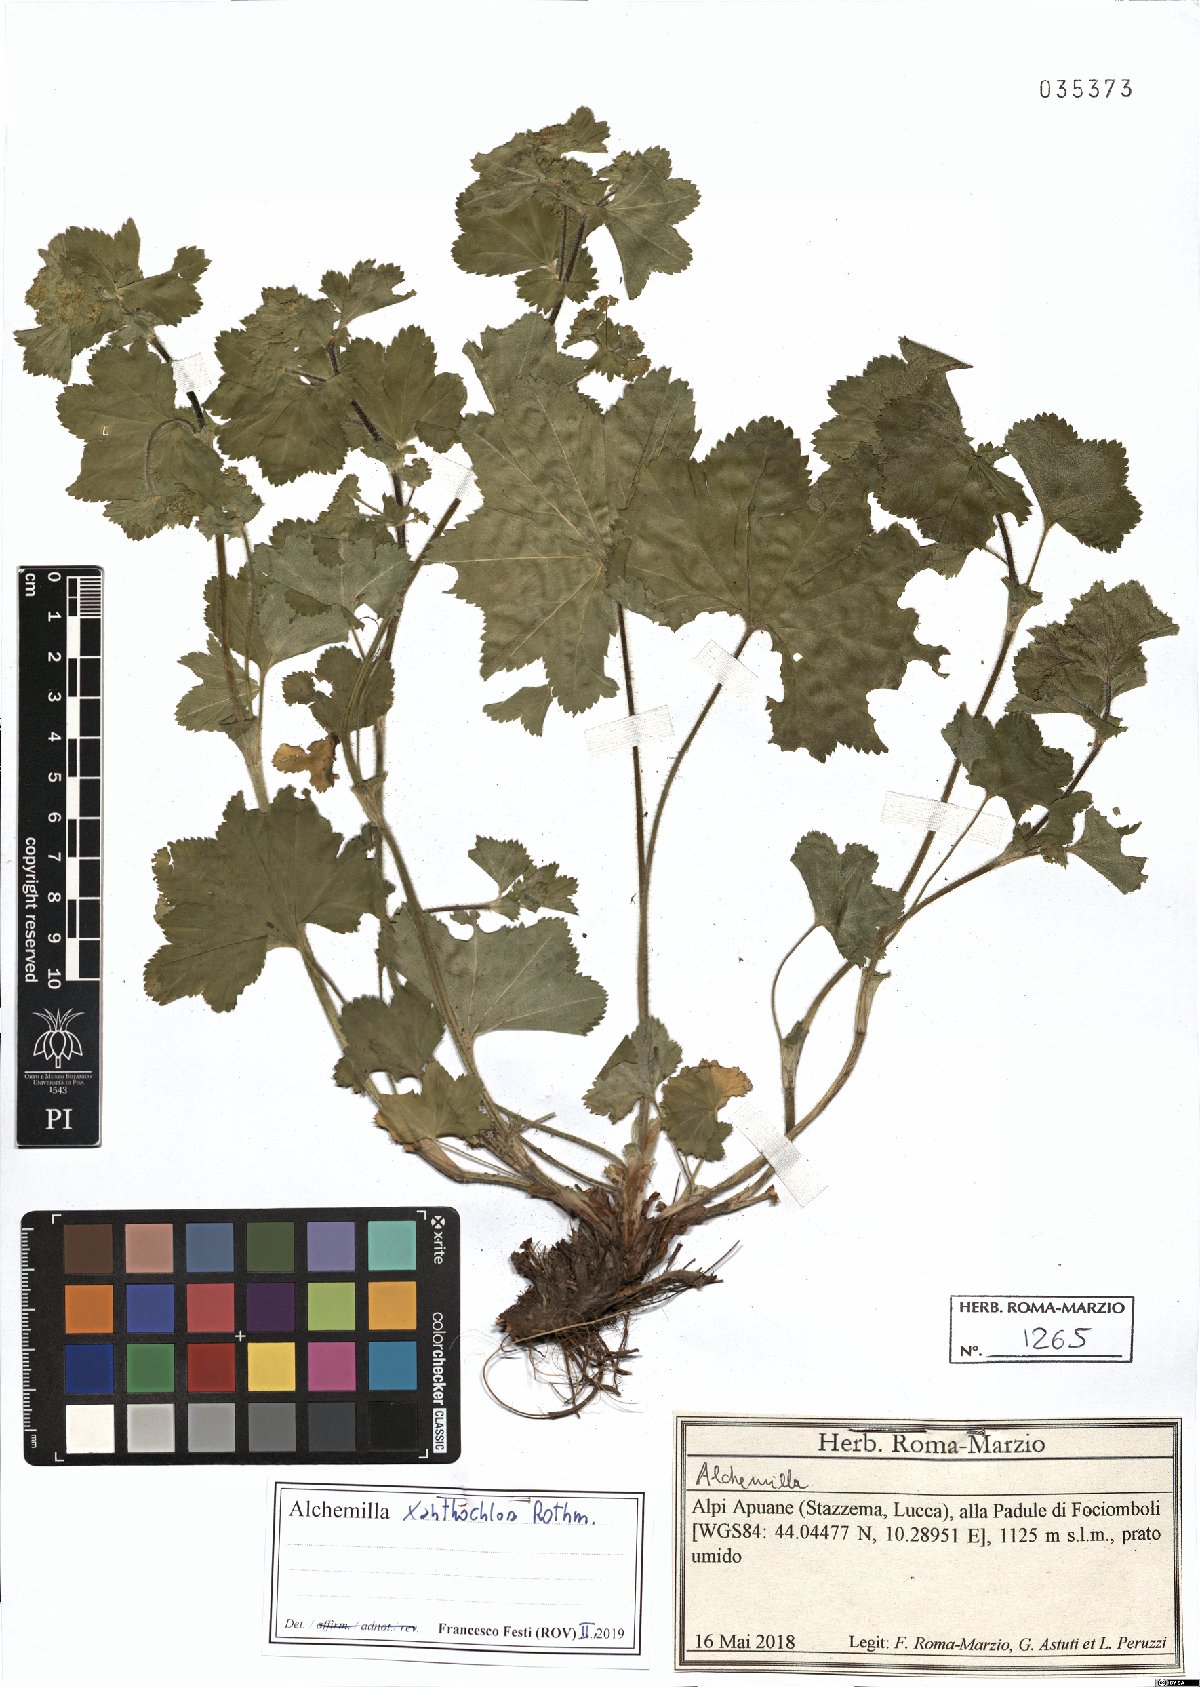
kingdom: Plantae
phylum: Tracheophyta
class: Magnoliopsida
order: Rosales
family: Rosaceae
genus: Alchemilla
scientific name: Alchemilla xanthochlora
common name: Intermediate lady's-mantle
